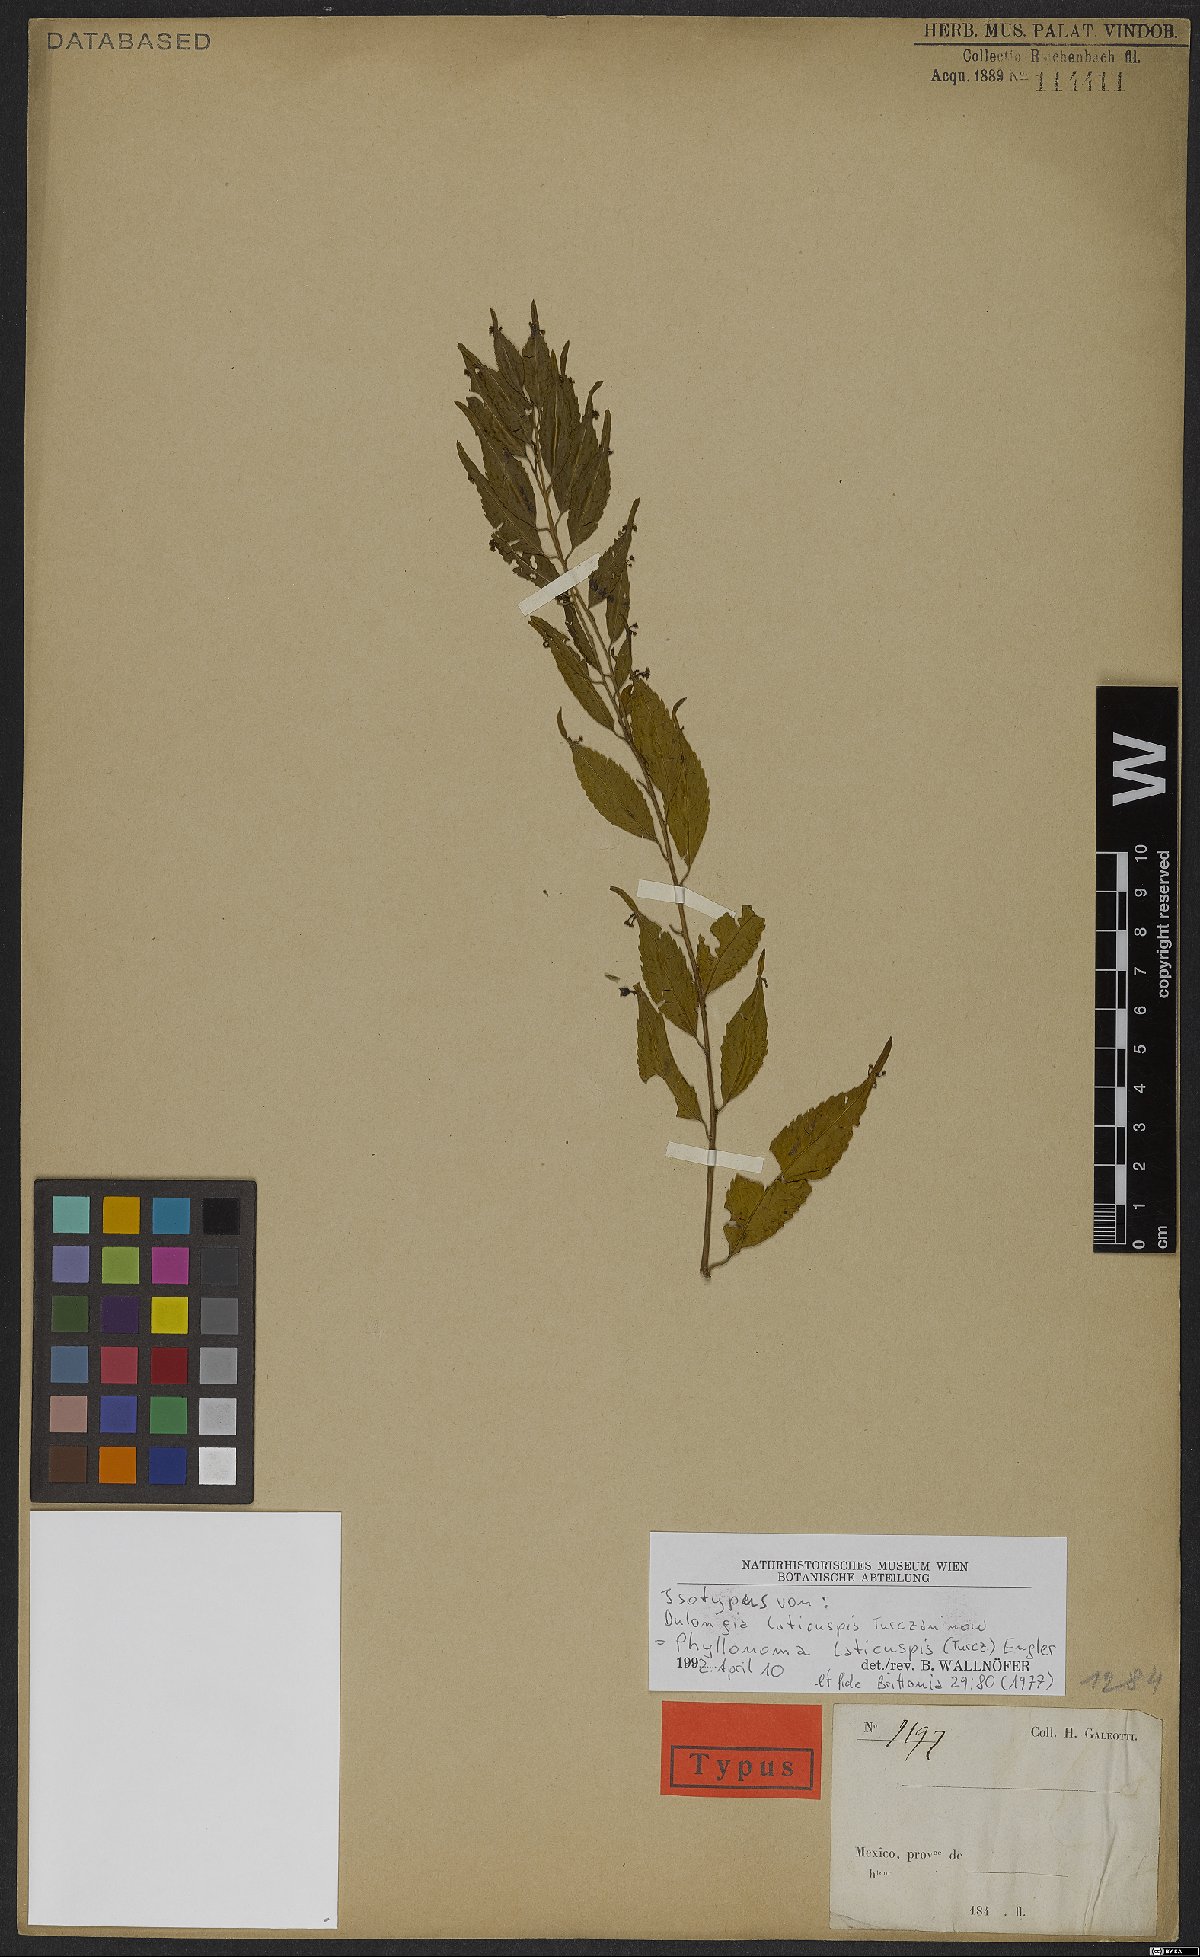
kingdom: Plantae
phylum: Tracheophyta
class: Magnoliopsida
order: Aquifoliales
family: Phyllonomaceae
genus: Phyllonoma
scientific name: Phyllonoma laticuspis
